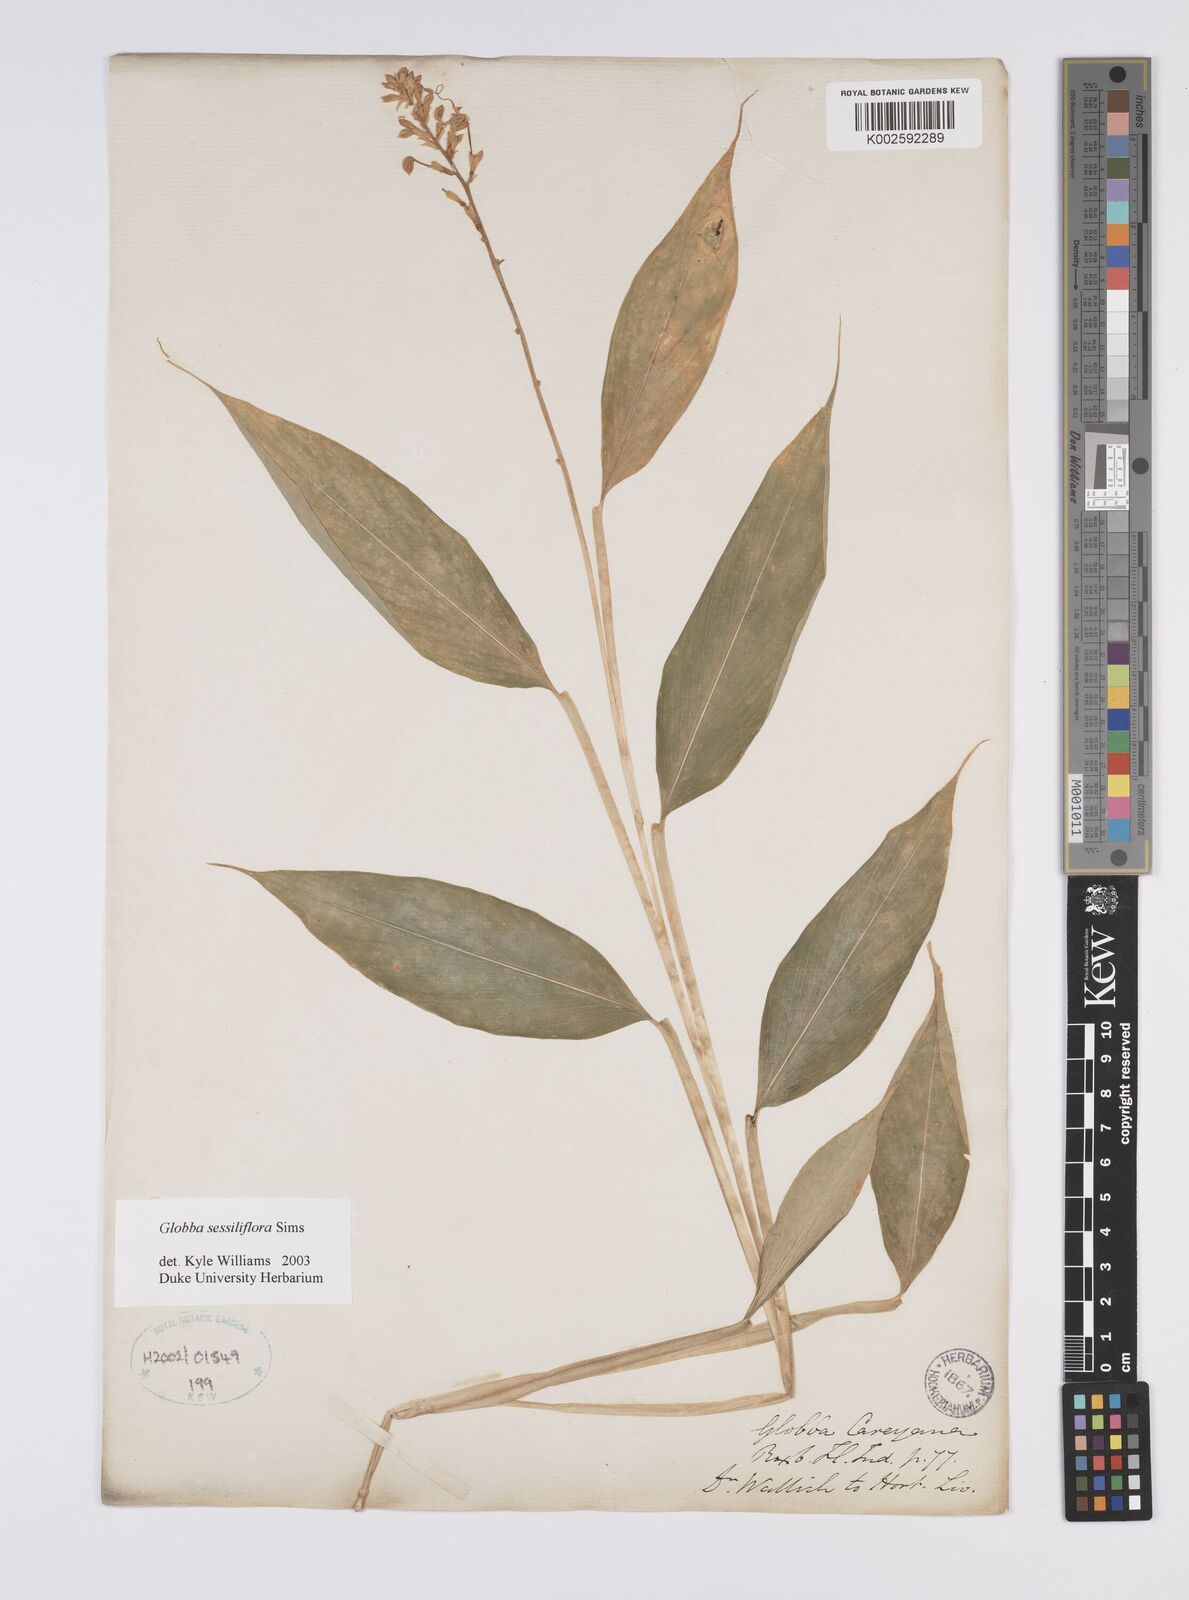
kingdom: Plantae
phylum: Tracheophyta
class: Liliopsida
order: Zingiberales
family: Zingiberaceae
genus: Globba
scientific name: Globba sessiliflora
